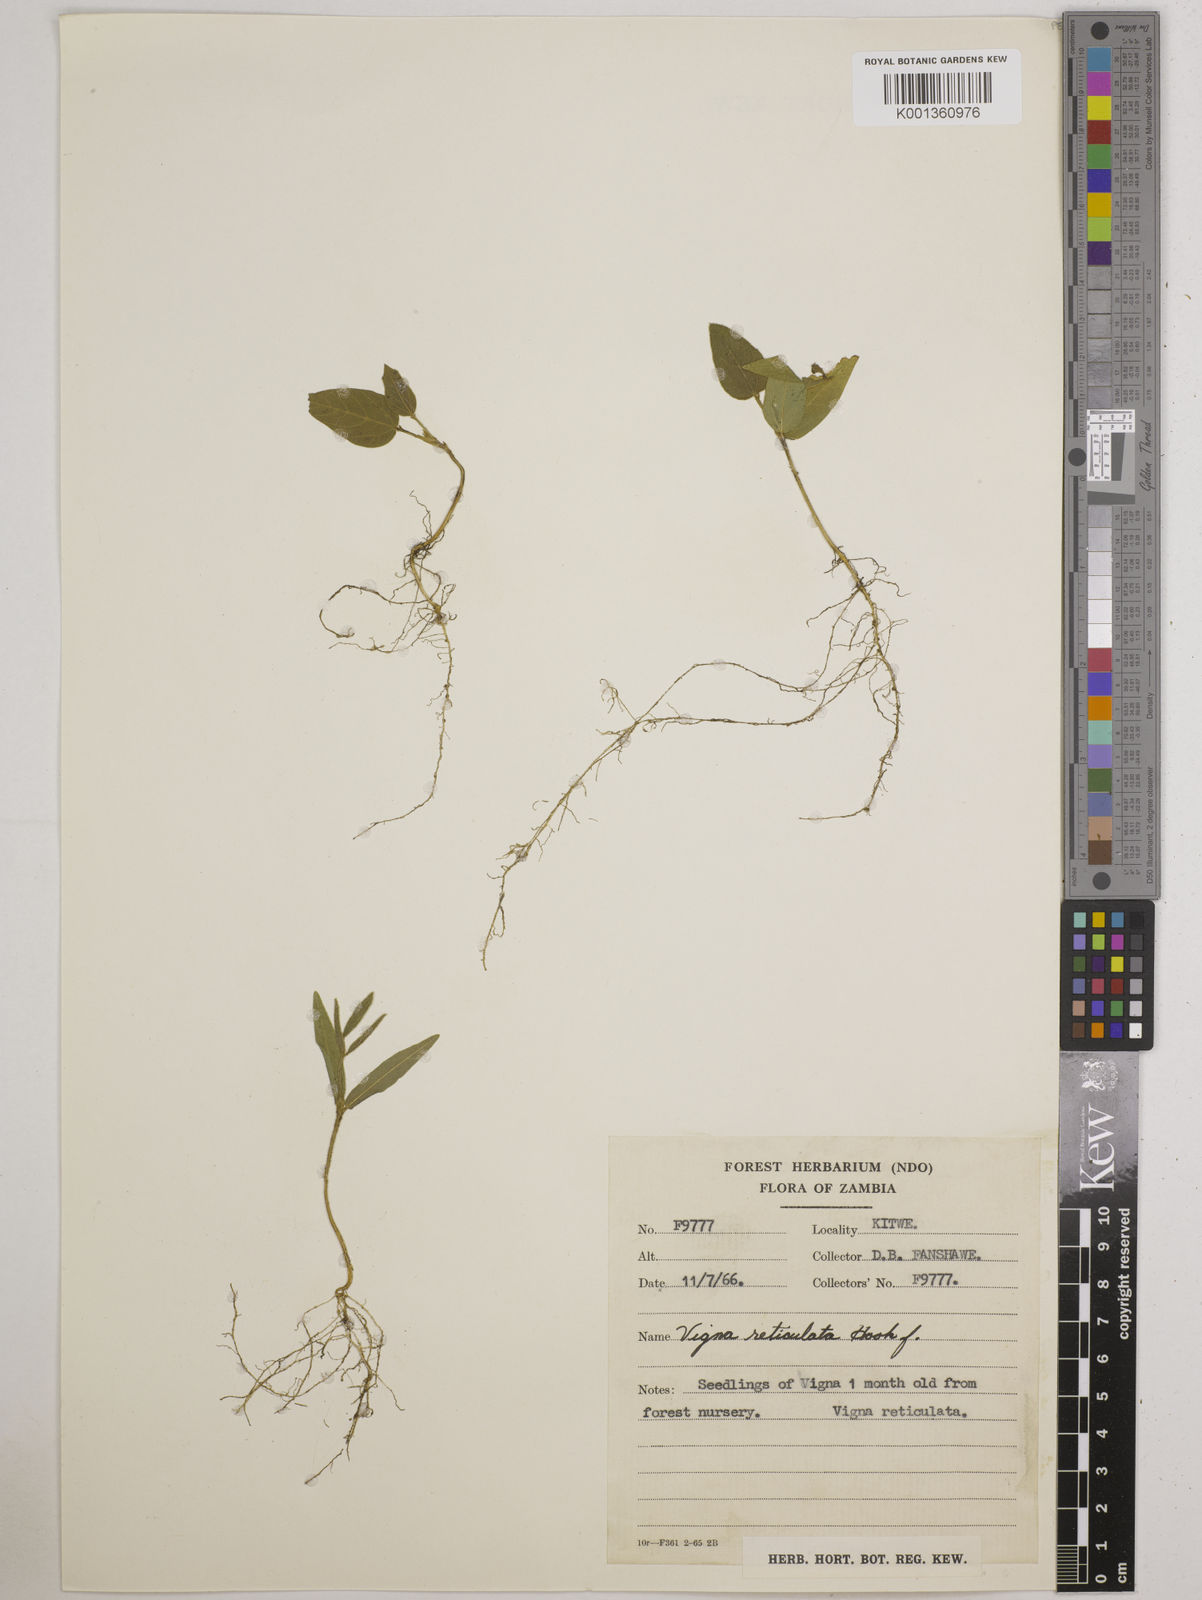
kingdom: Plantae
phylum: Tracheophyta
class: Magnoliopsida
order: Fabales
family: Fabaceae
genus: Vigna
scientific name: Vigna reticulata
